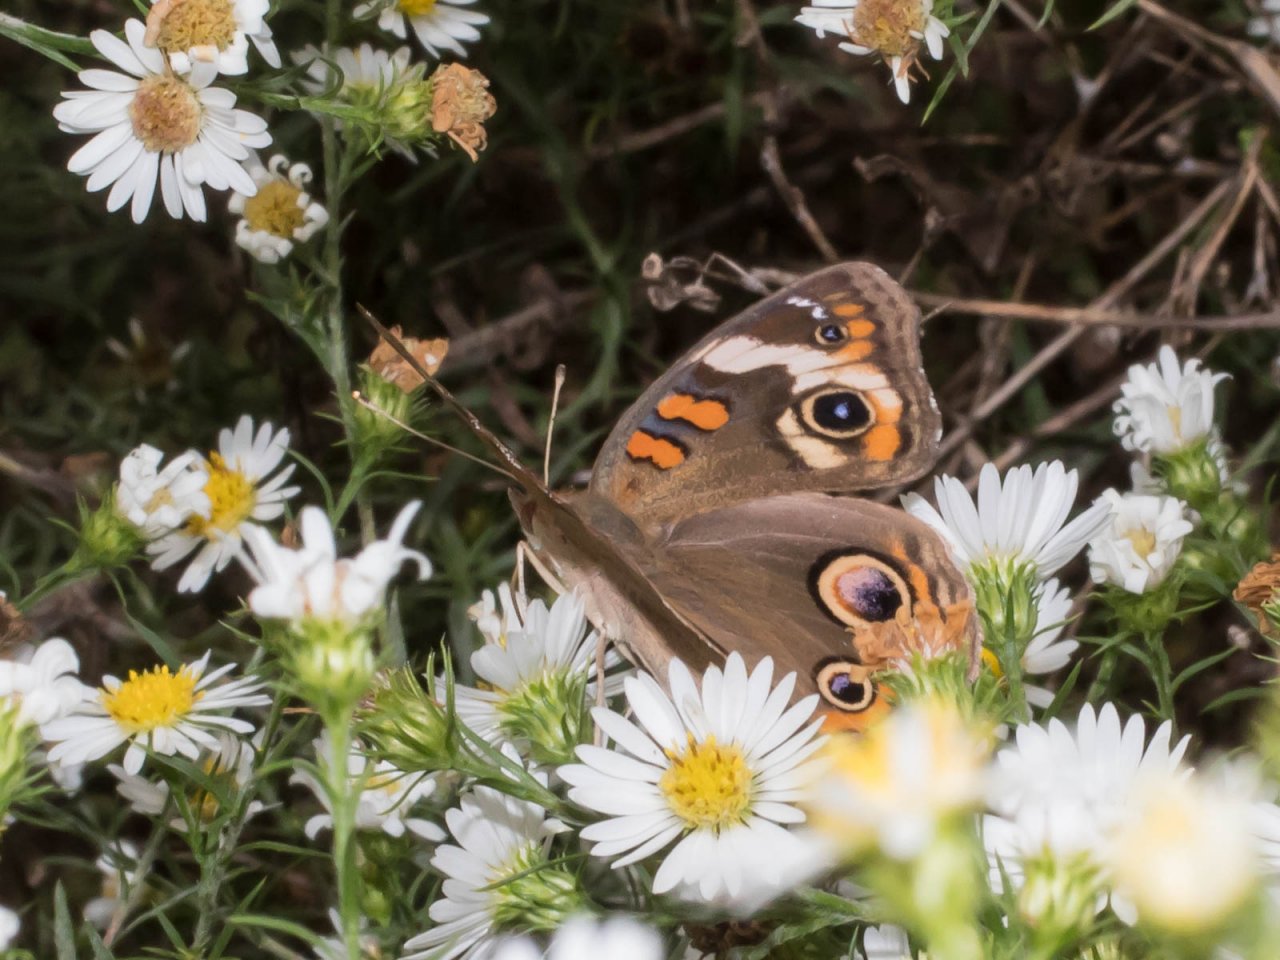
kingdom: Animalia
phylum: Arthropoda
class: Insecta
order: Lepidoptera
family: Nymphalidae
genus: Junonia
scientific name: Junonia coenia
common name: Common Buckeye
